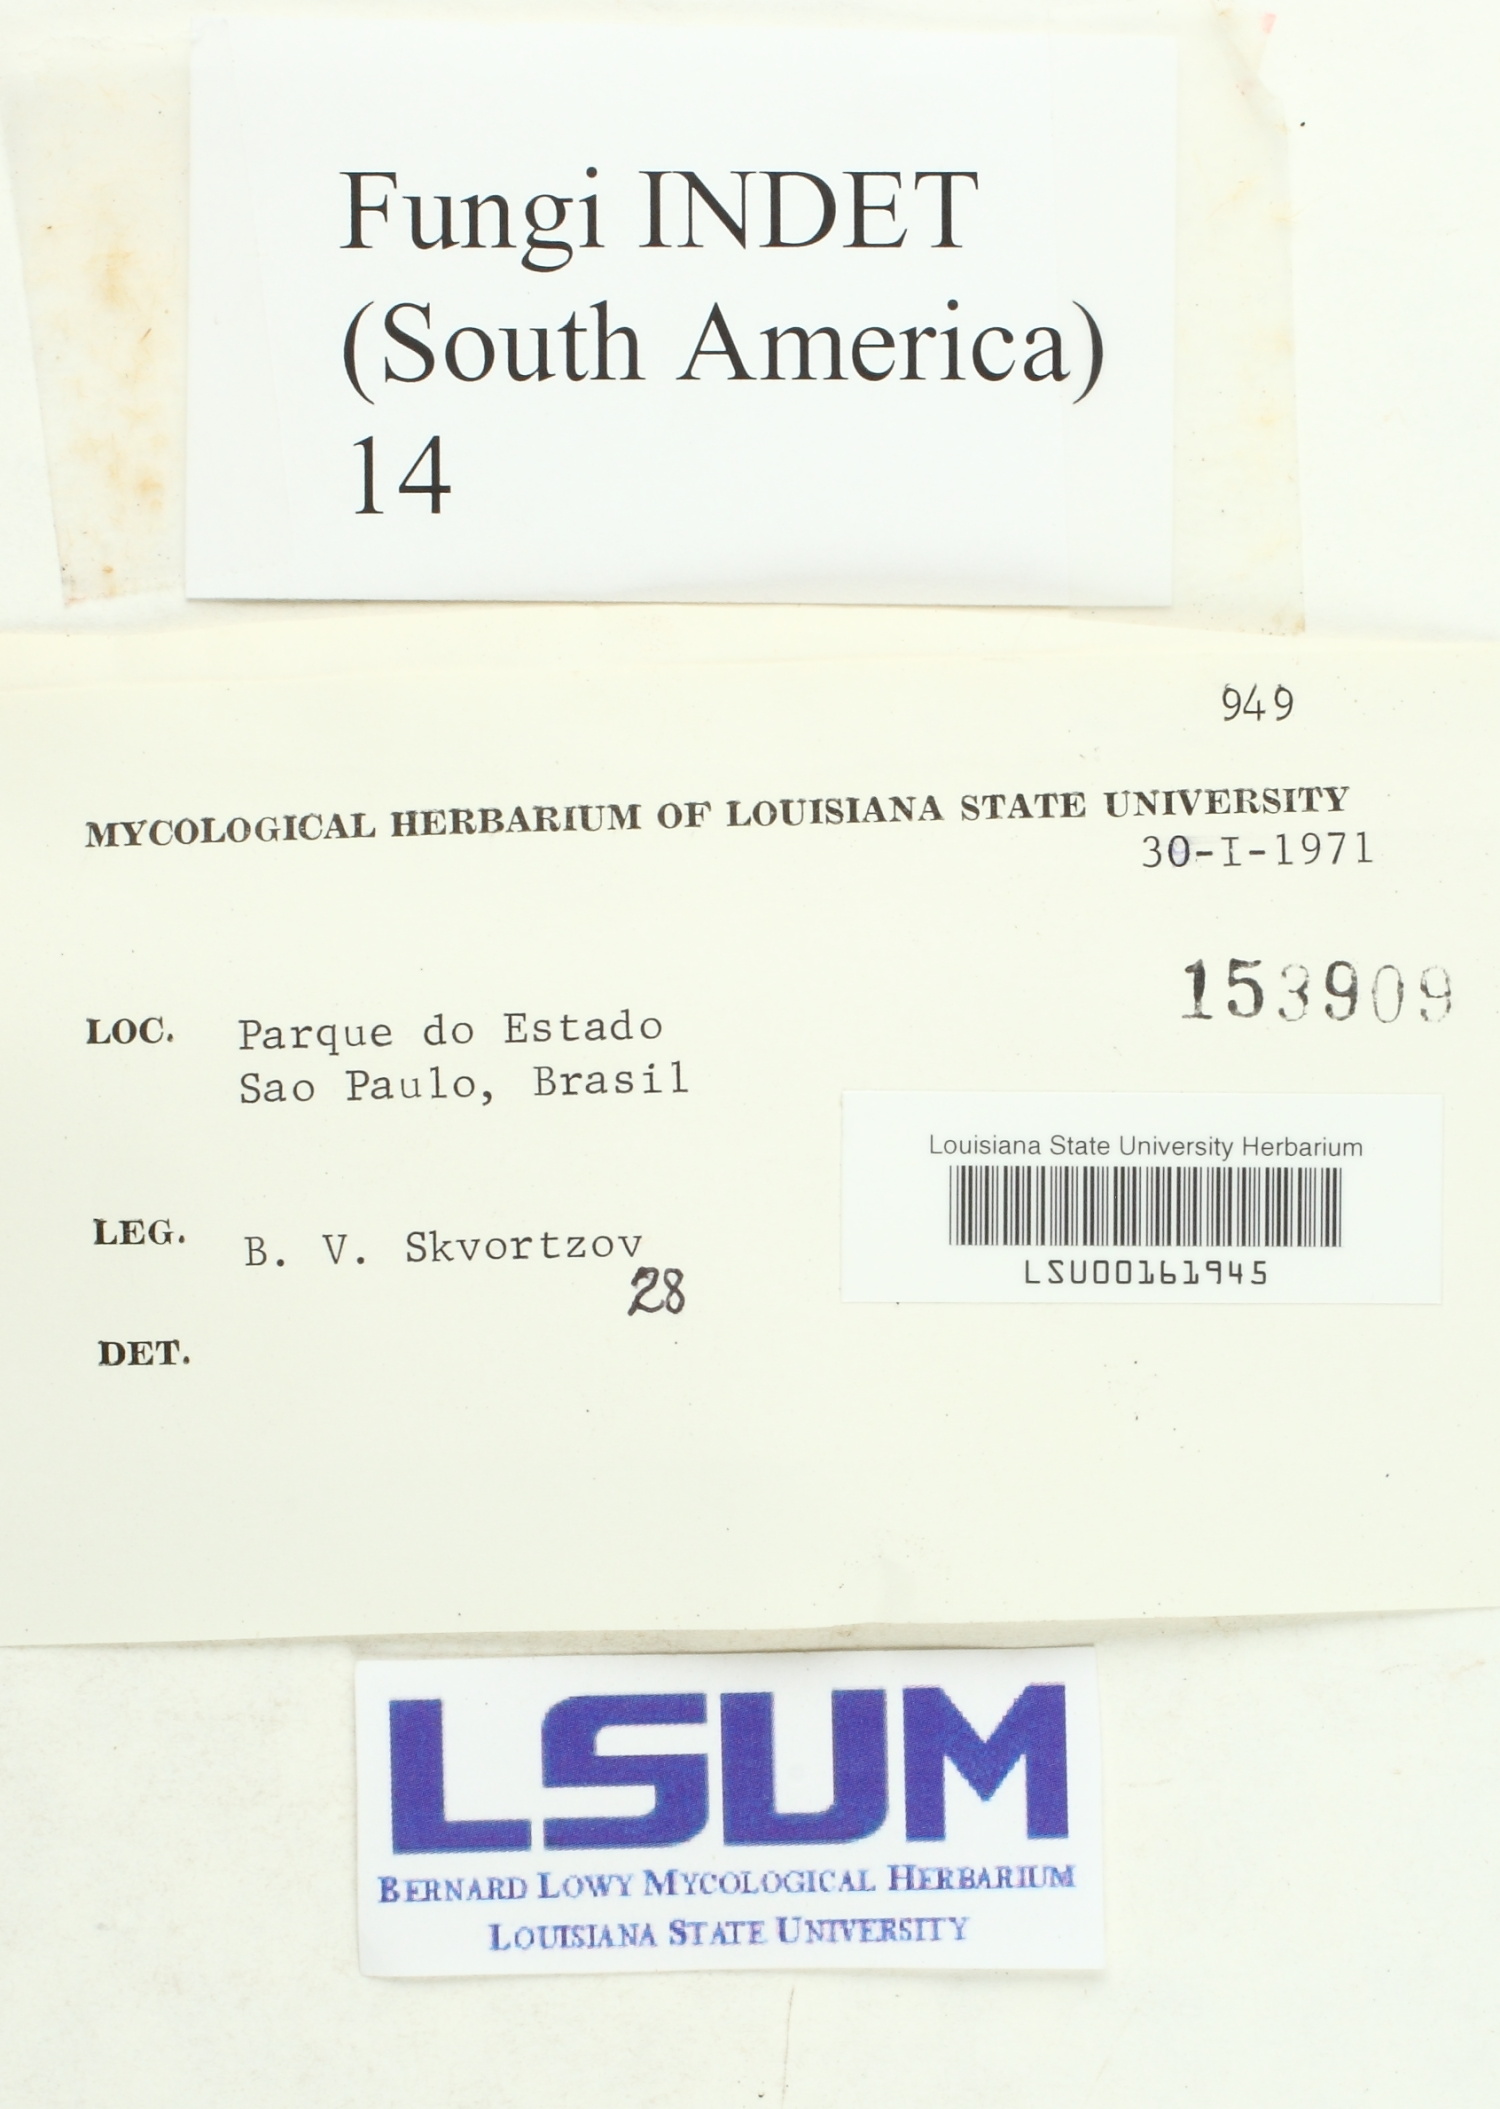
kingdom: Fungi
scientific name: Fungi
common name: Fungi
